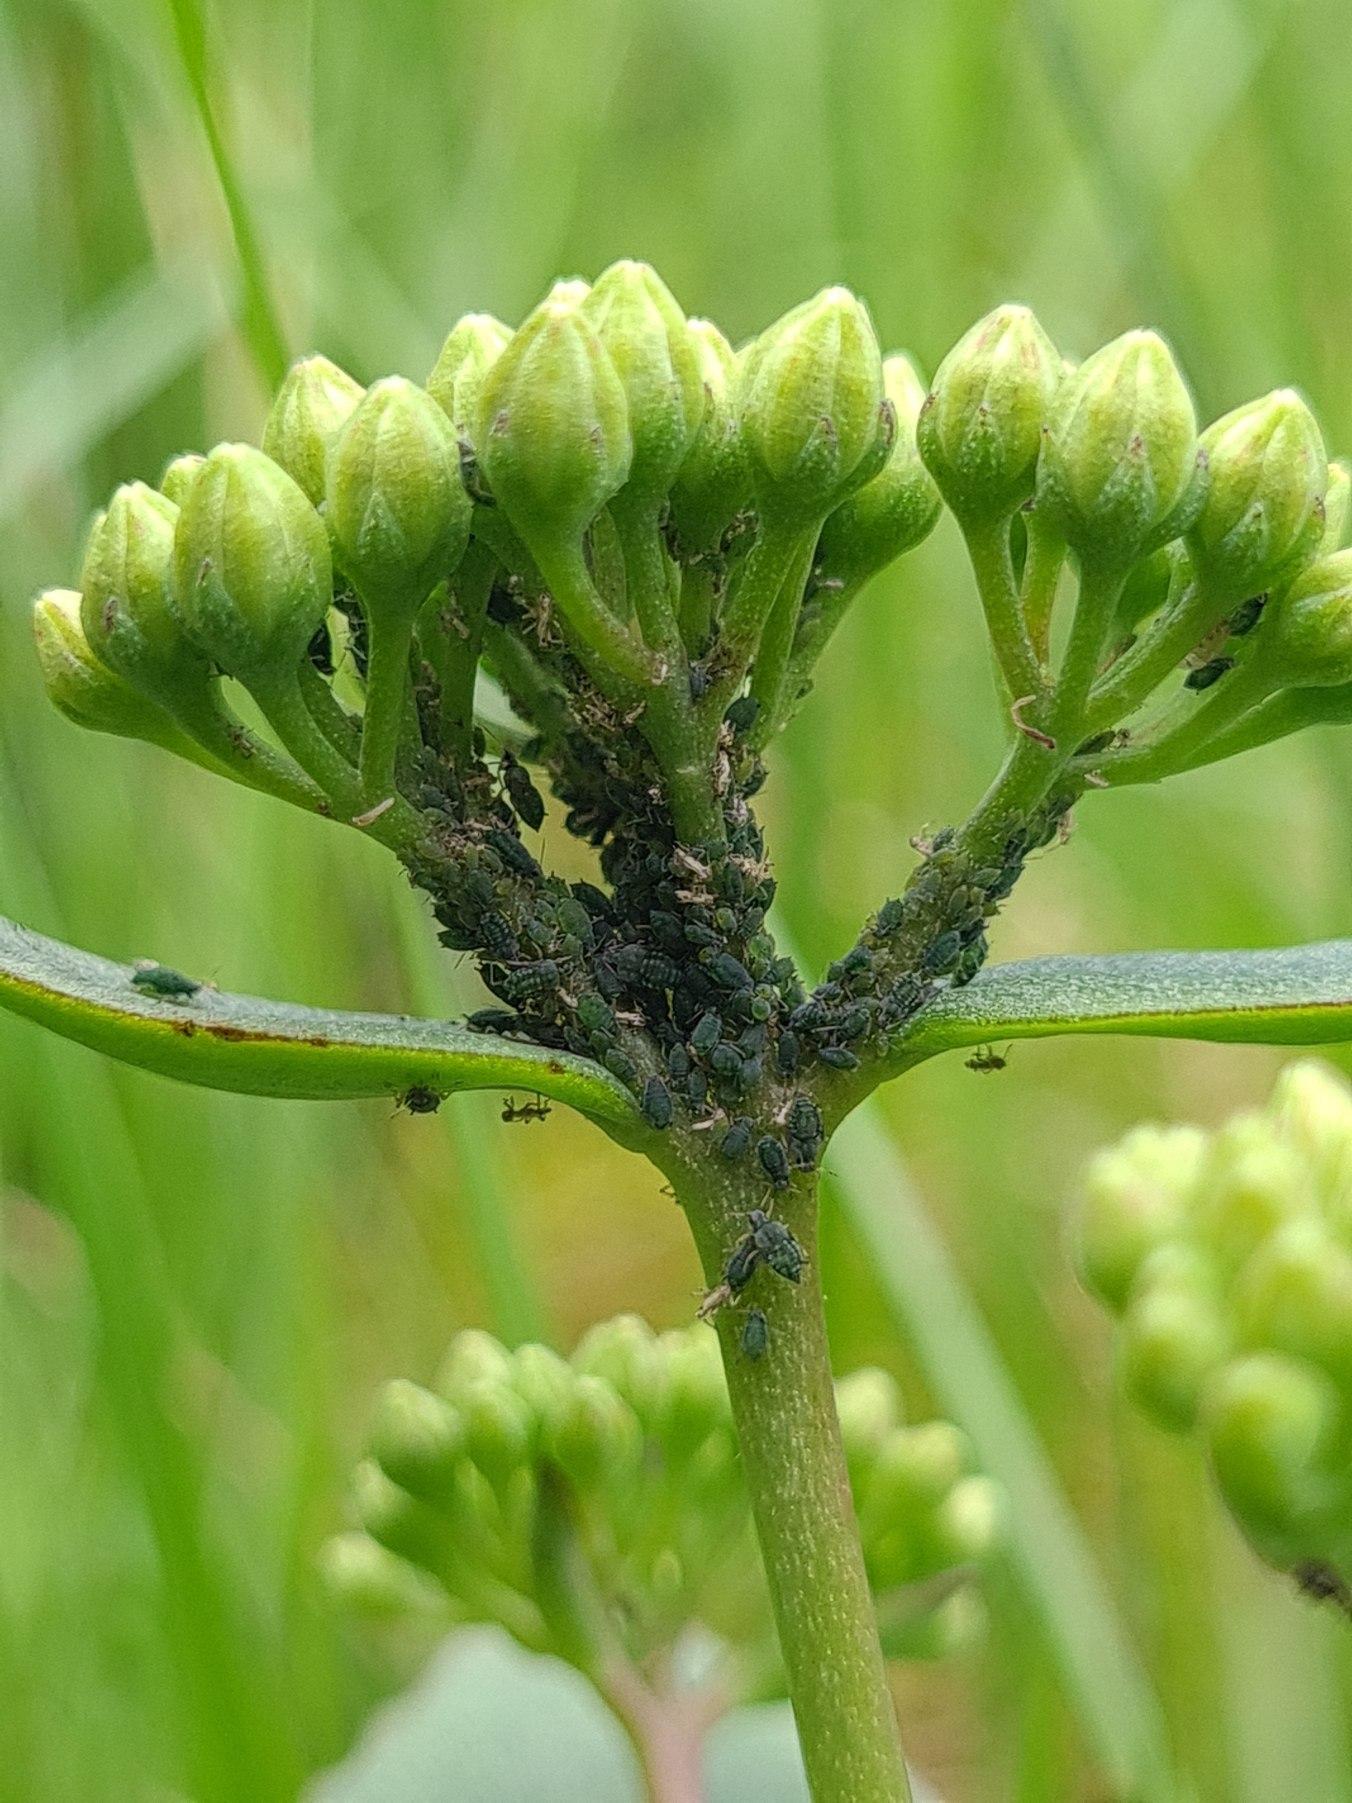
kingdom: Animalia
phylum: Arthropoda
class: Insecta
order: Hemiptera
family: Aphididae
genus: Aphis
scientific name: Aphis sedi
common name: Sankthansurtbladlus
